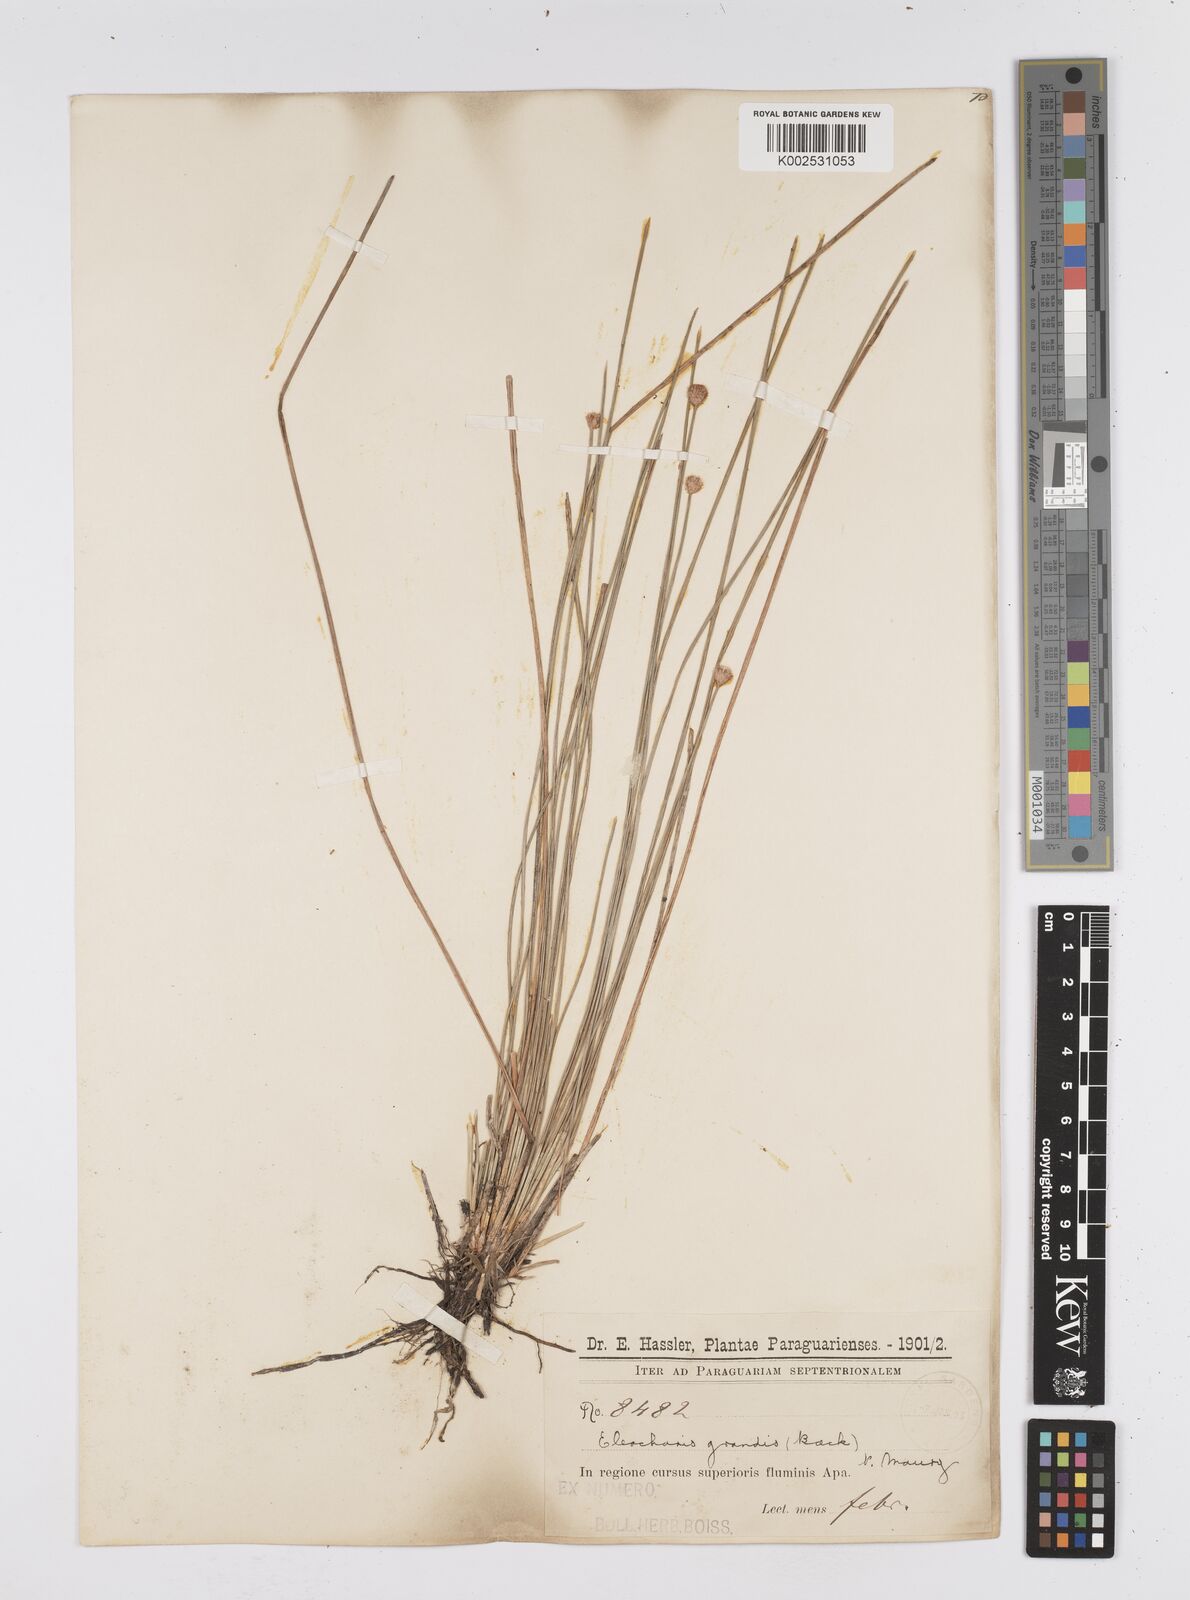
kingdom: Plantae
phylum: Tracheophyta
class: Liliopsida
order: Poales
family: Cyperaceae
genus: Eleocharis
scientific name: Eleocharis nudipes
